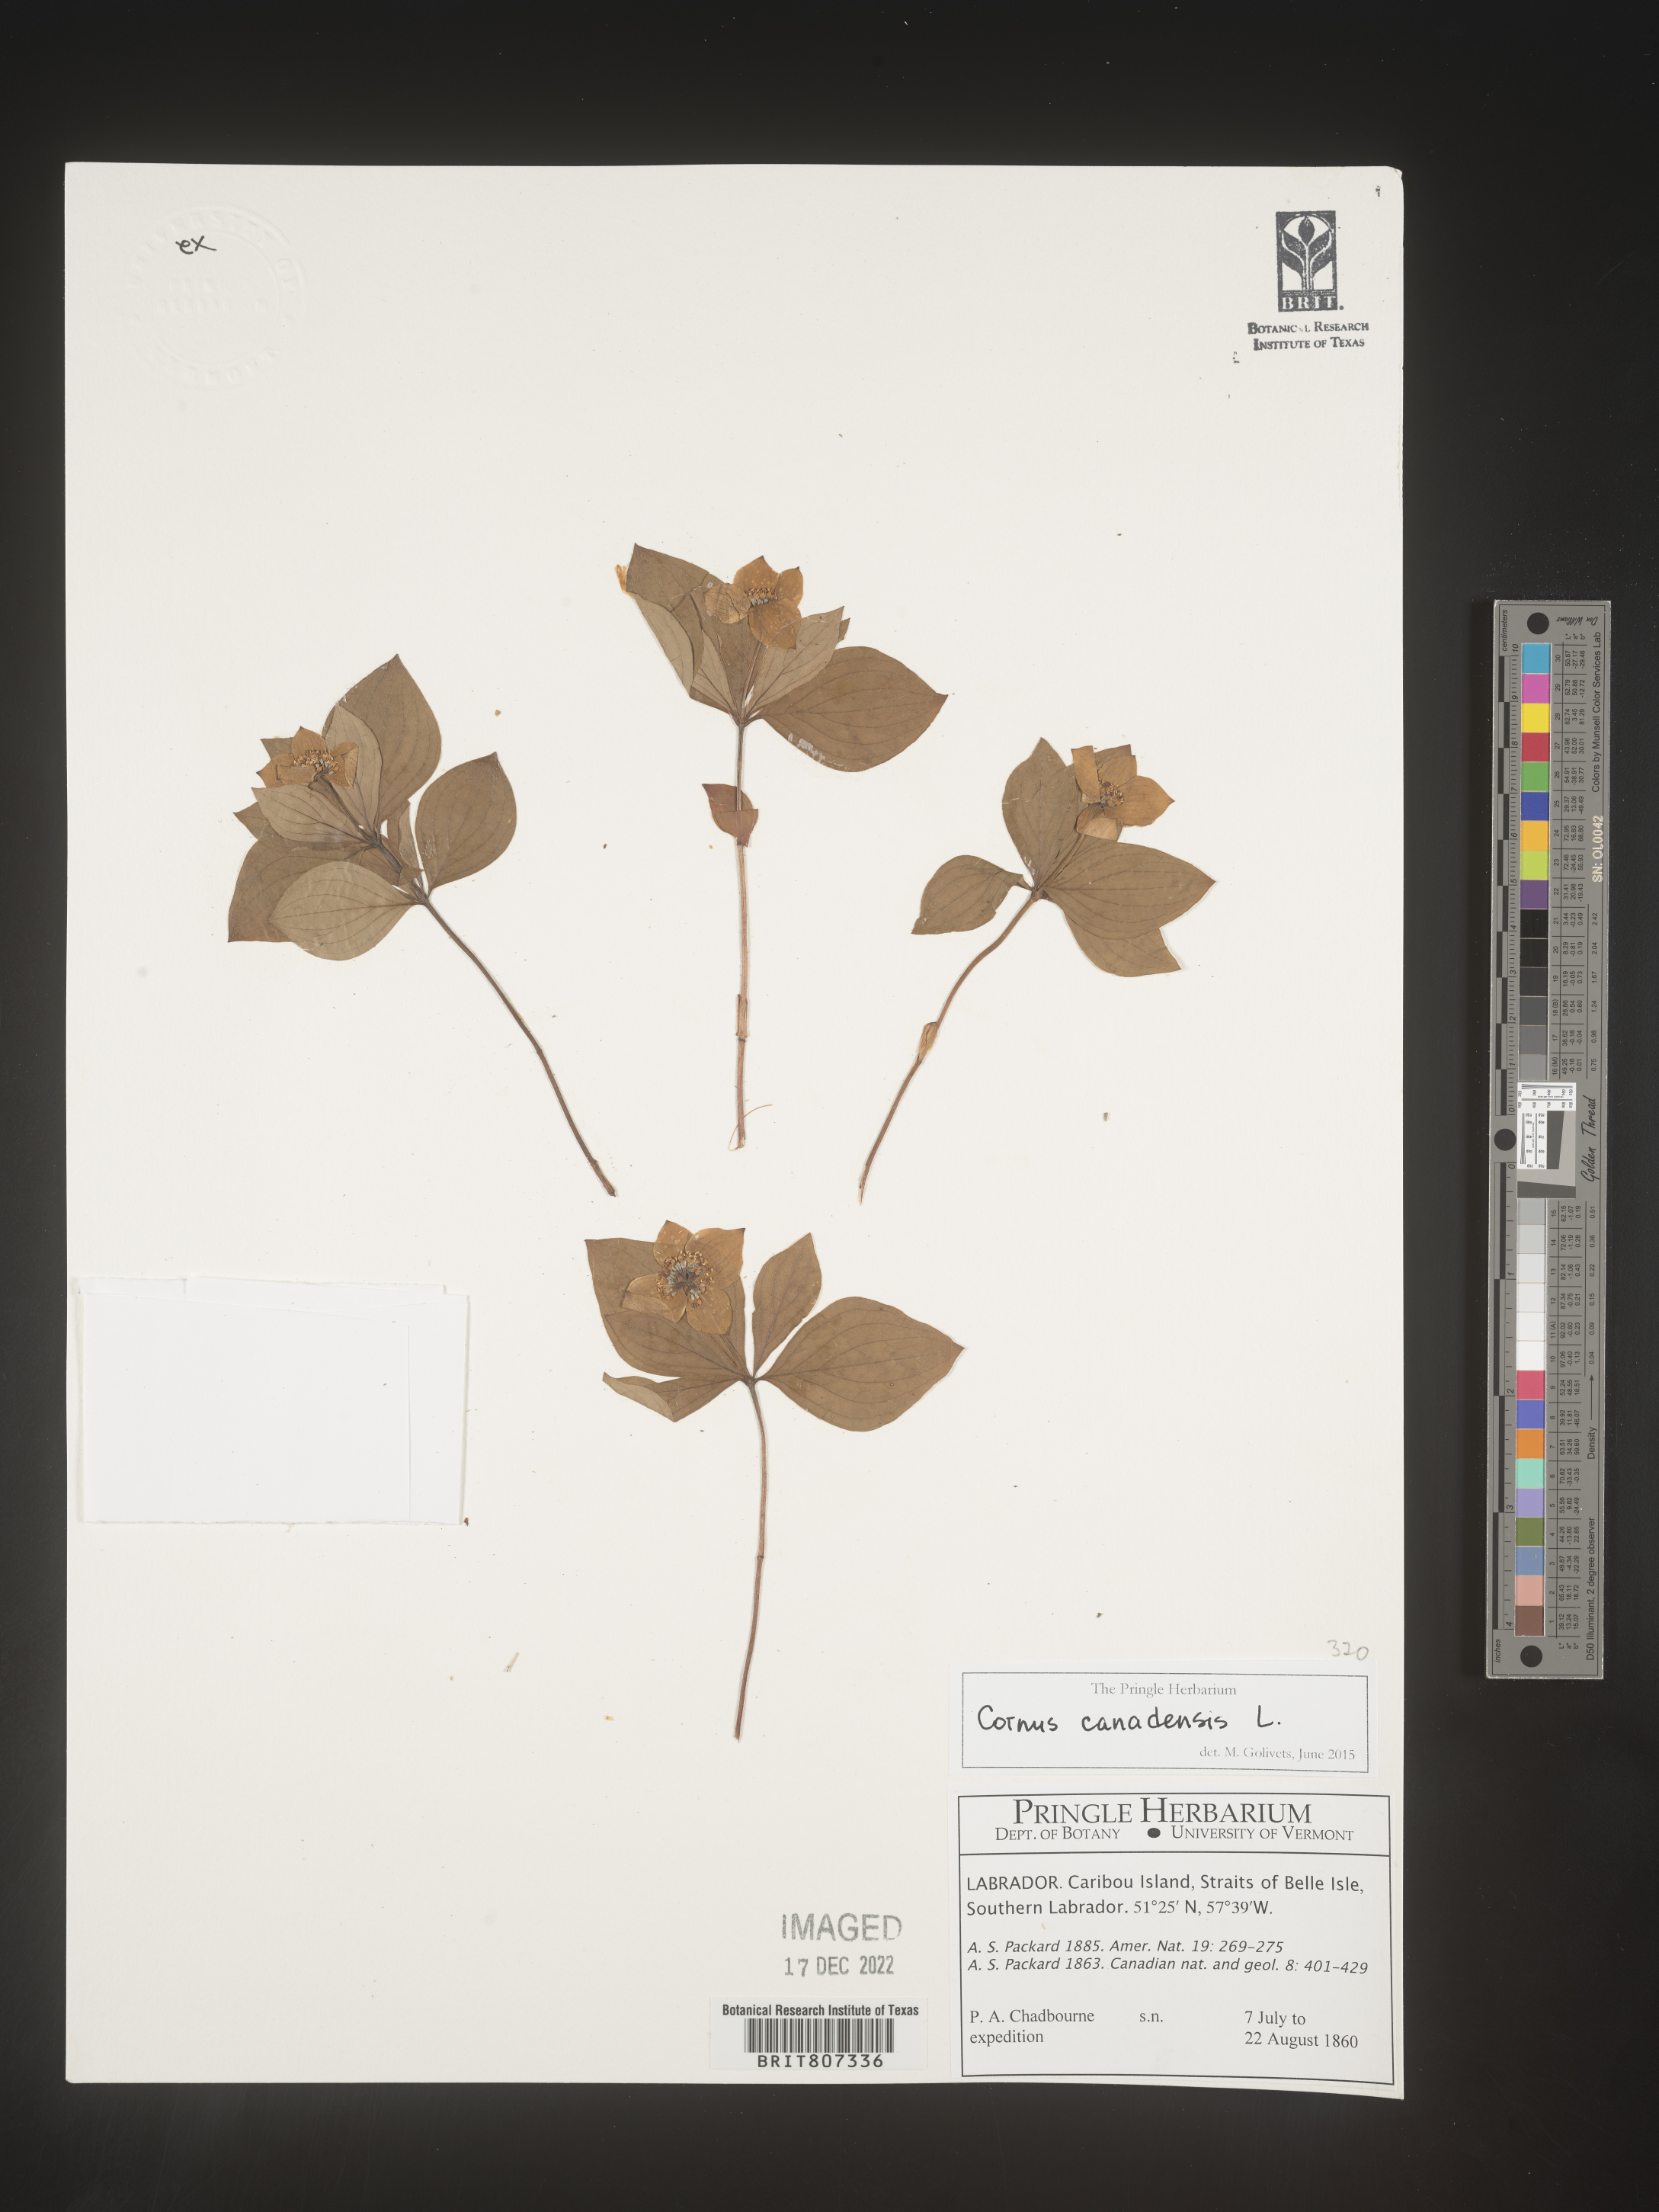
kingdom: Plantae
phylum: Tracheophyta
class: Magnoliopsida
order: Cornales
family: Cornaceae
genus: Cornus
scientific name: Cornus canadensis
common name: Creeping dogwood
